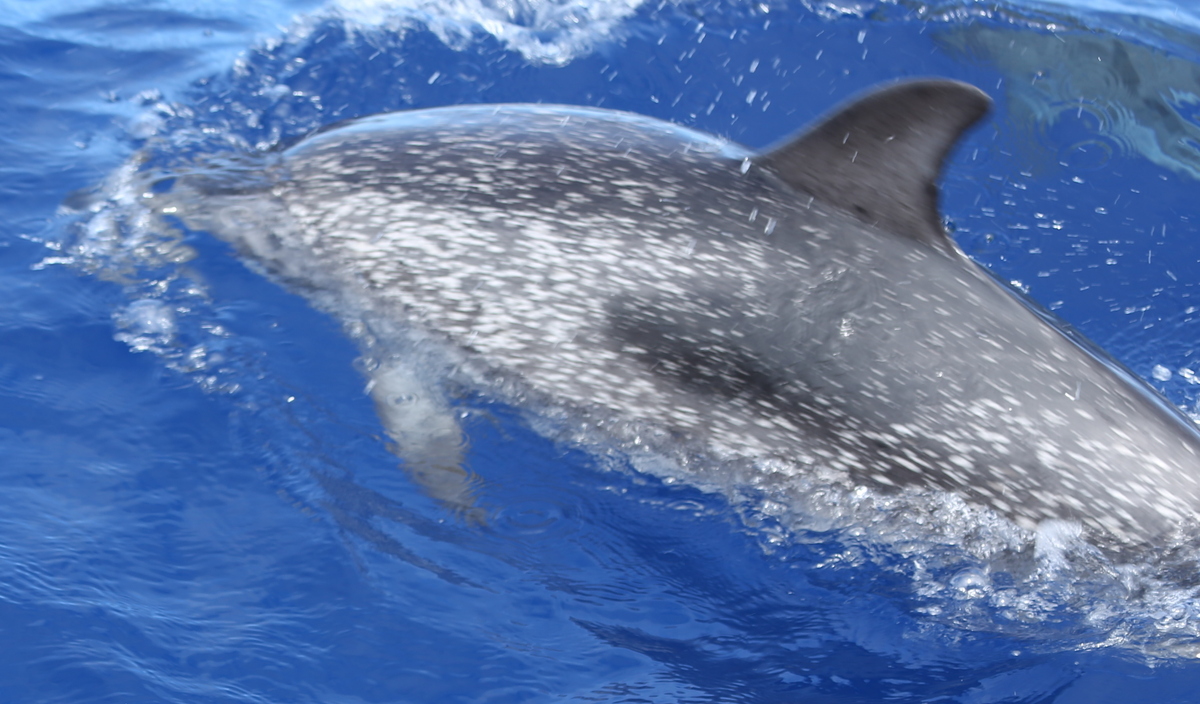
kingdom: Animalia
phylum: Chordata
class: Mammalia
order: Cetacea
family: Delphinidae
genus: Stenella
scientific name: Stenella frontalis
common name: Atlantic spotted dolphin
